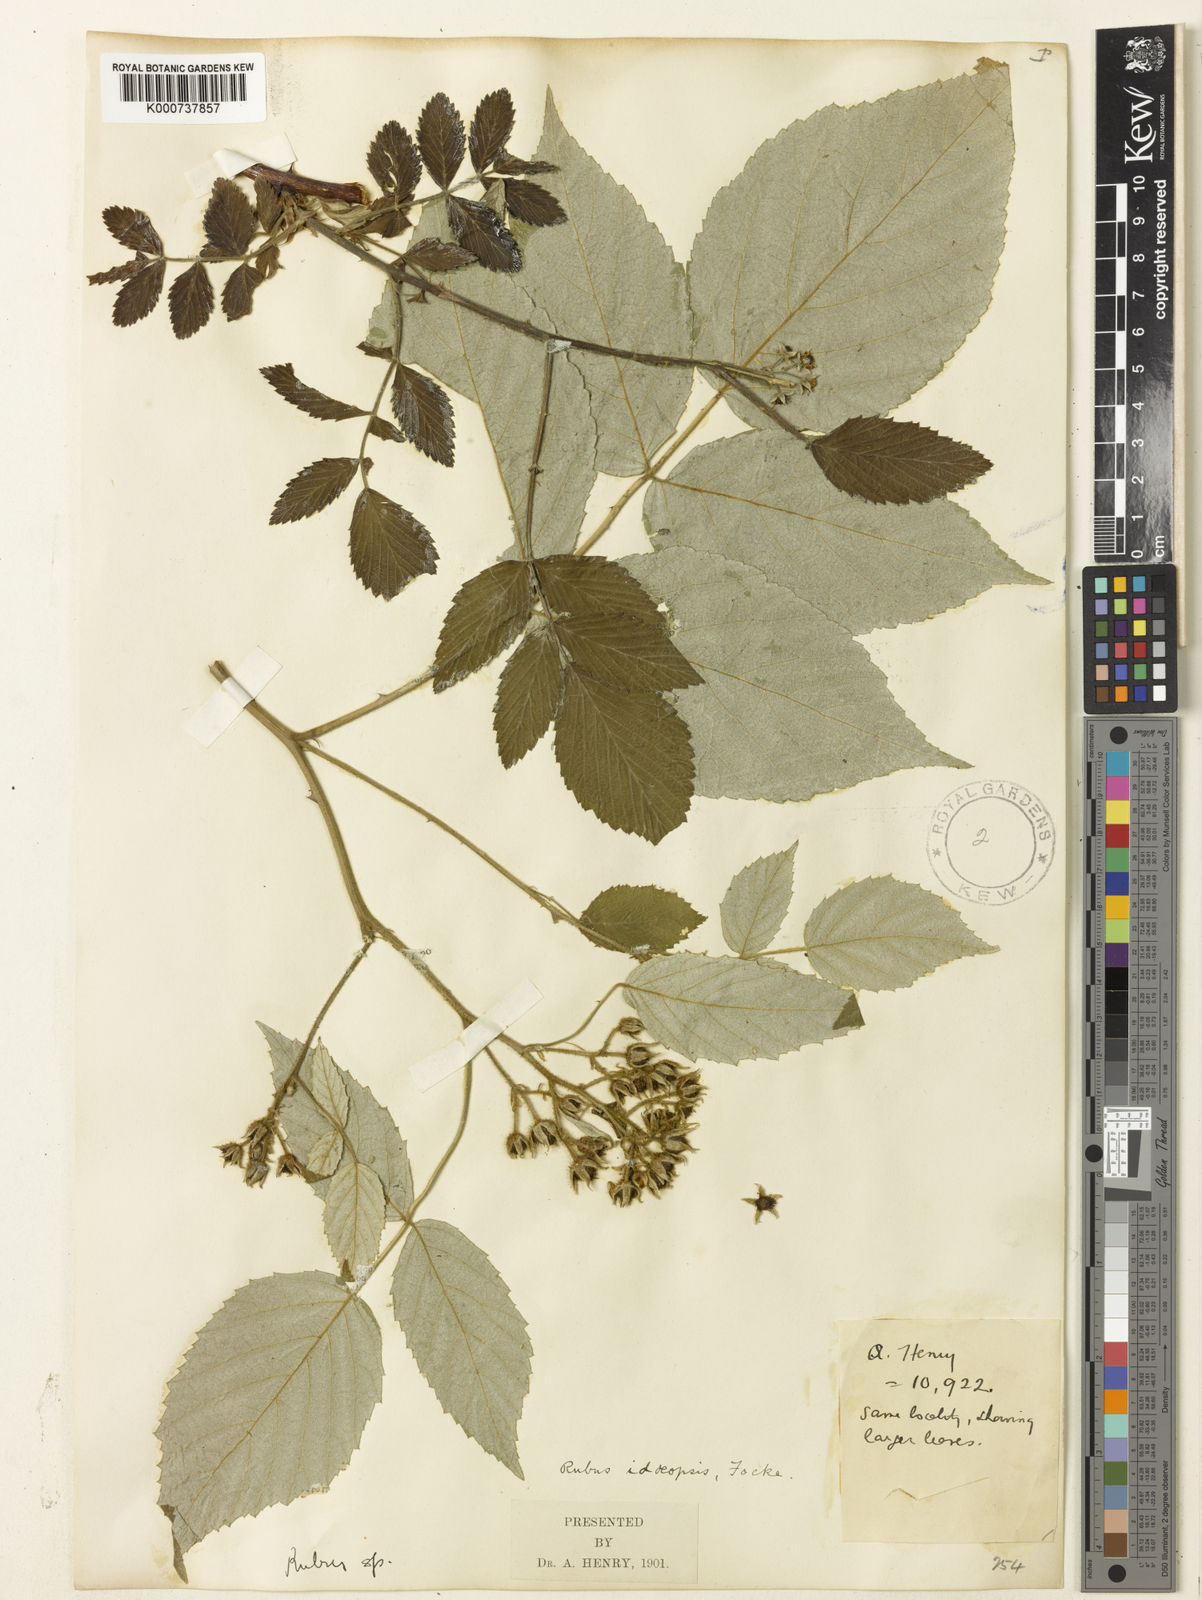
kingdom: Plantae
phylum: Tracheophyta
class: Magnoliopsida
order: Rosales
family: Rosaceae
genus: Rubus
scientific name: Rubus idaeopsis
